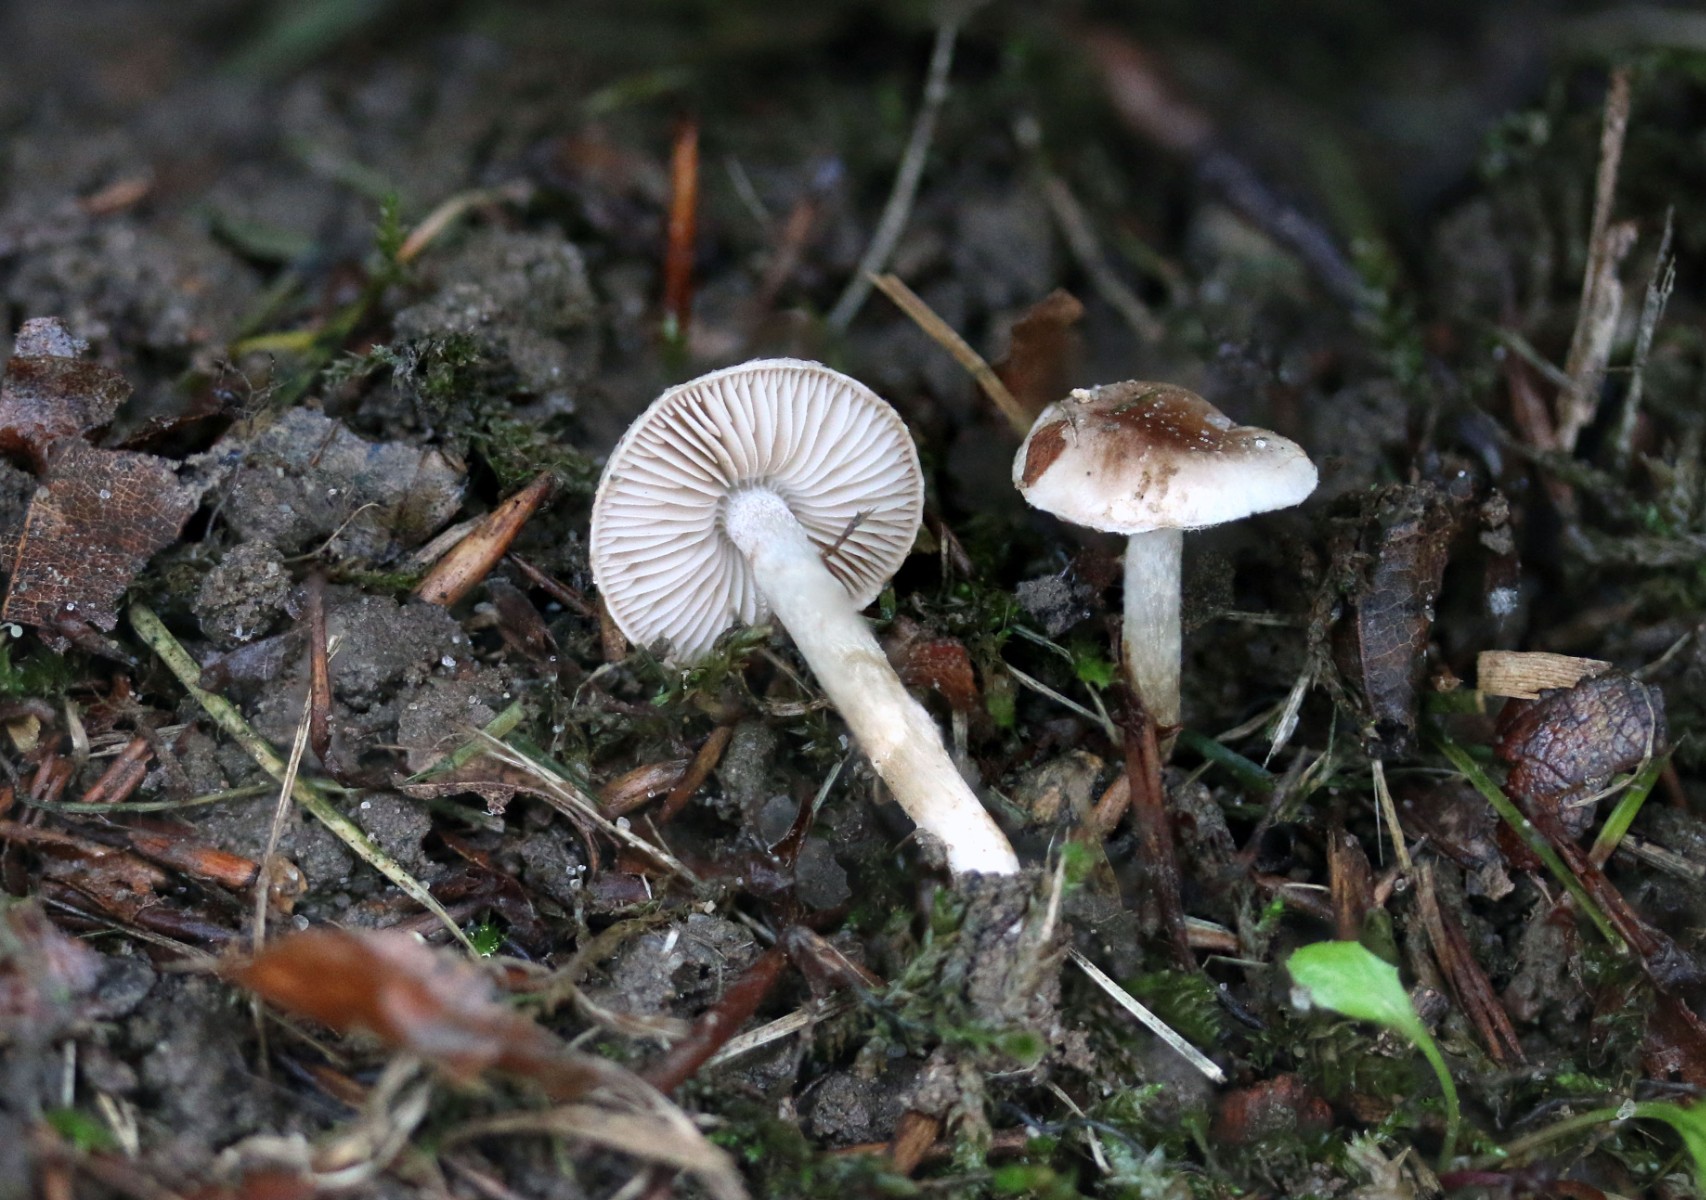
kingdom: Fungi
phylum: Basidiomycota
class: Agaricomycetes
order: Agaricales
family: Hymenogastraceae
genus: Hebeloma
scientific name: Hebeloma mesophaeum
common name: lerbrun tåreblad
